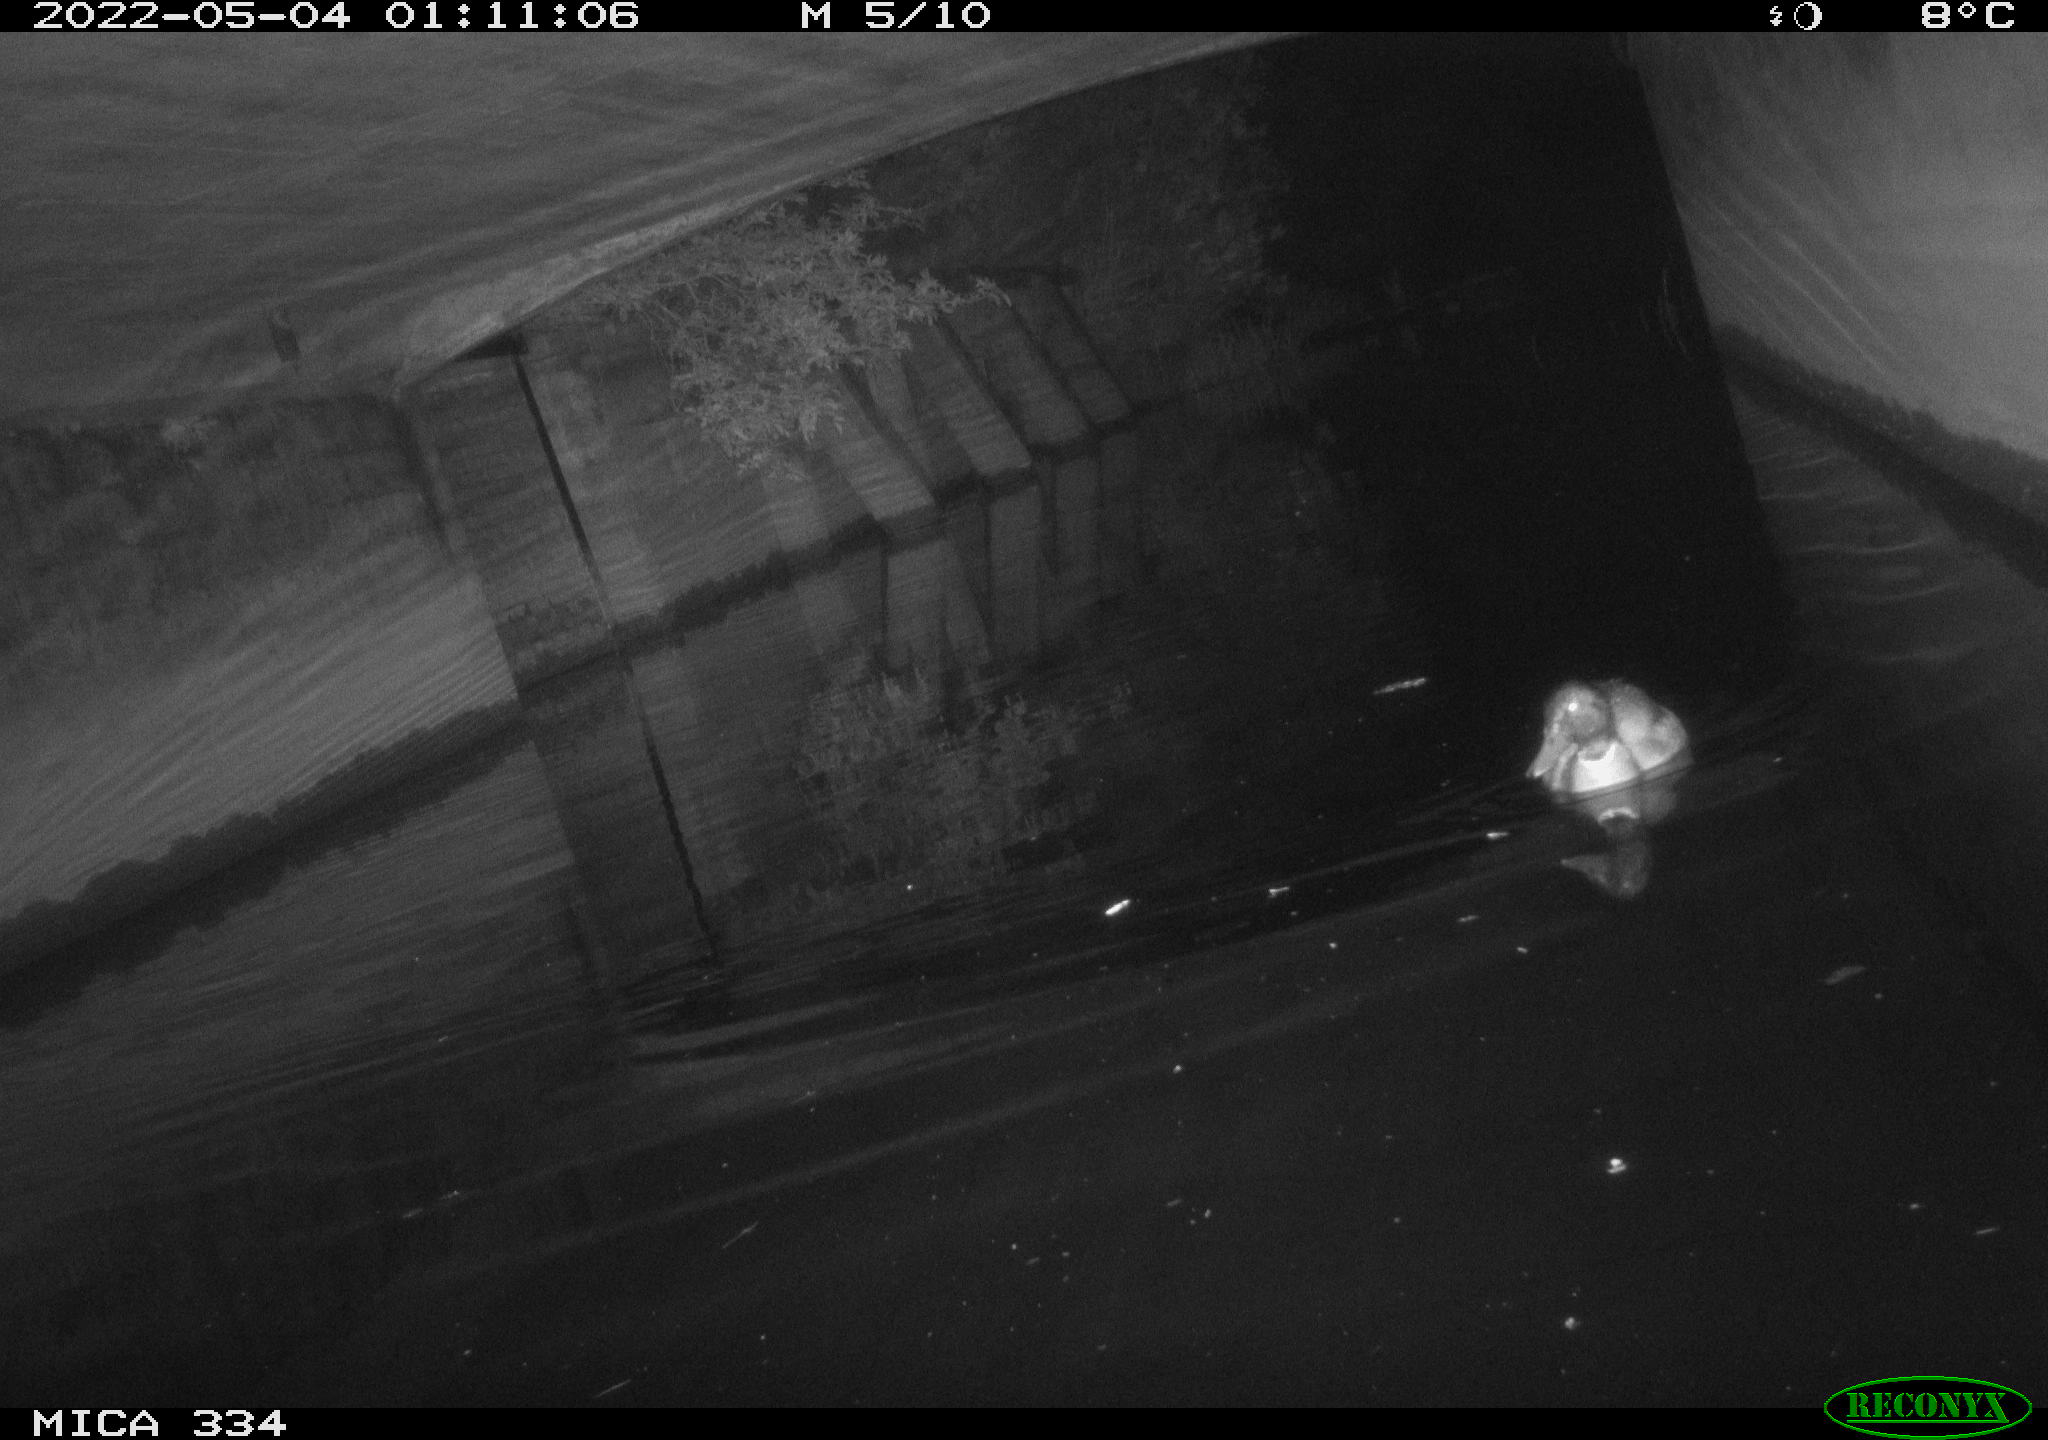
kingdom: Animalia
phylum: Chordata
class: Aves
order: Anseriformes
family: Anatidae
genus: Anas
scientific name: Anas platyrhynchos
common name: Mallard
